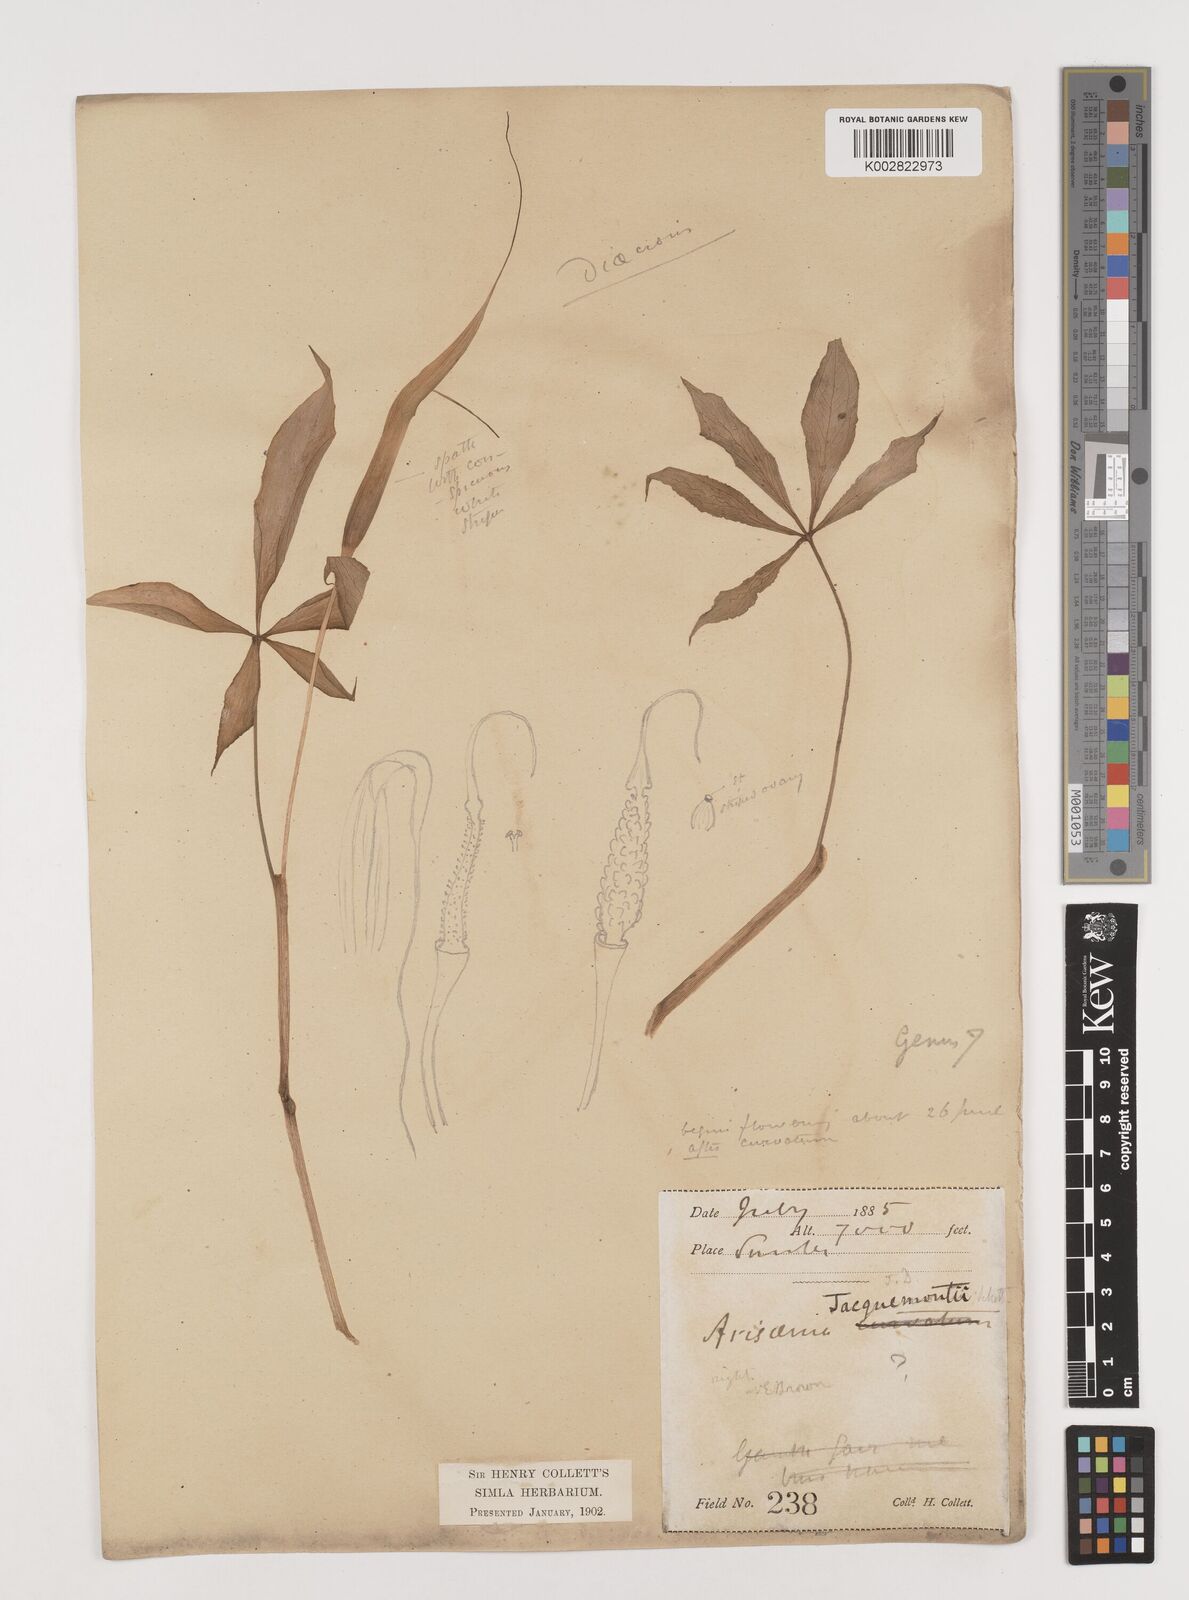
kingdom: Plantae
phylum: Tracheophyta
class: Liliopsida
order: Alismatales
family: Araceae
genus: Arisaema
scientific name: Arisaema jacquemontii
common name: Jacquemont's cobra-lily
